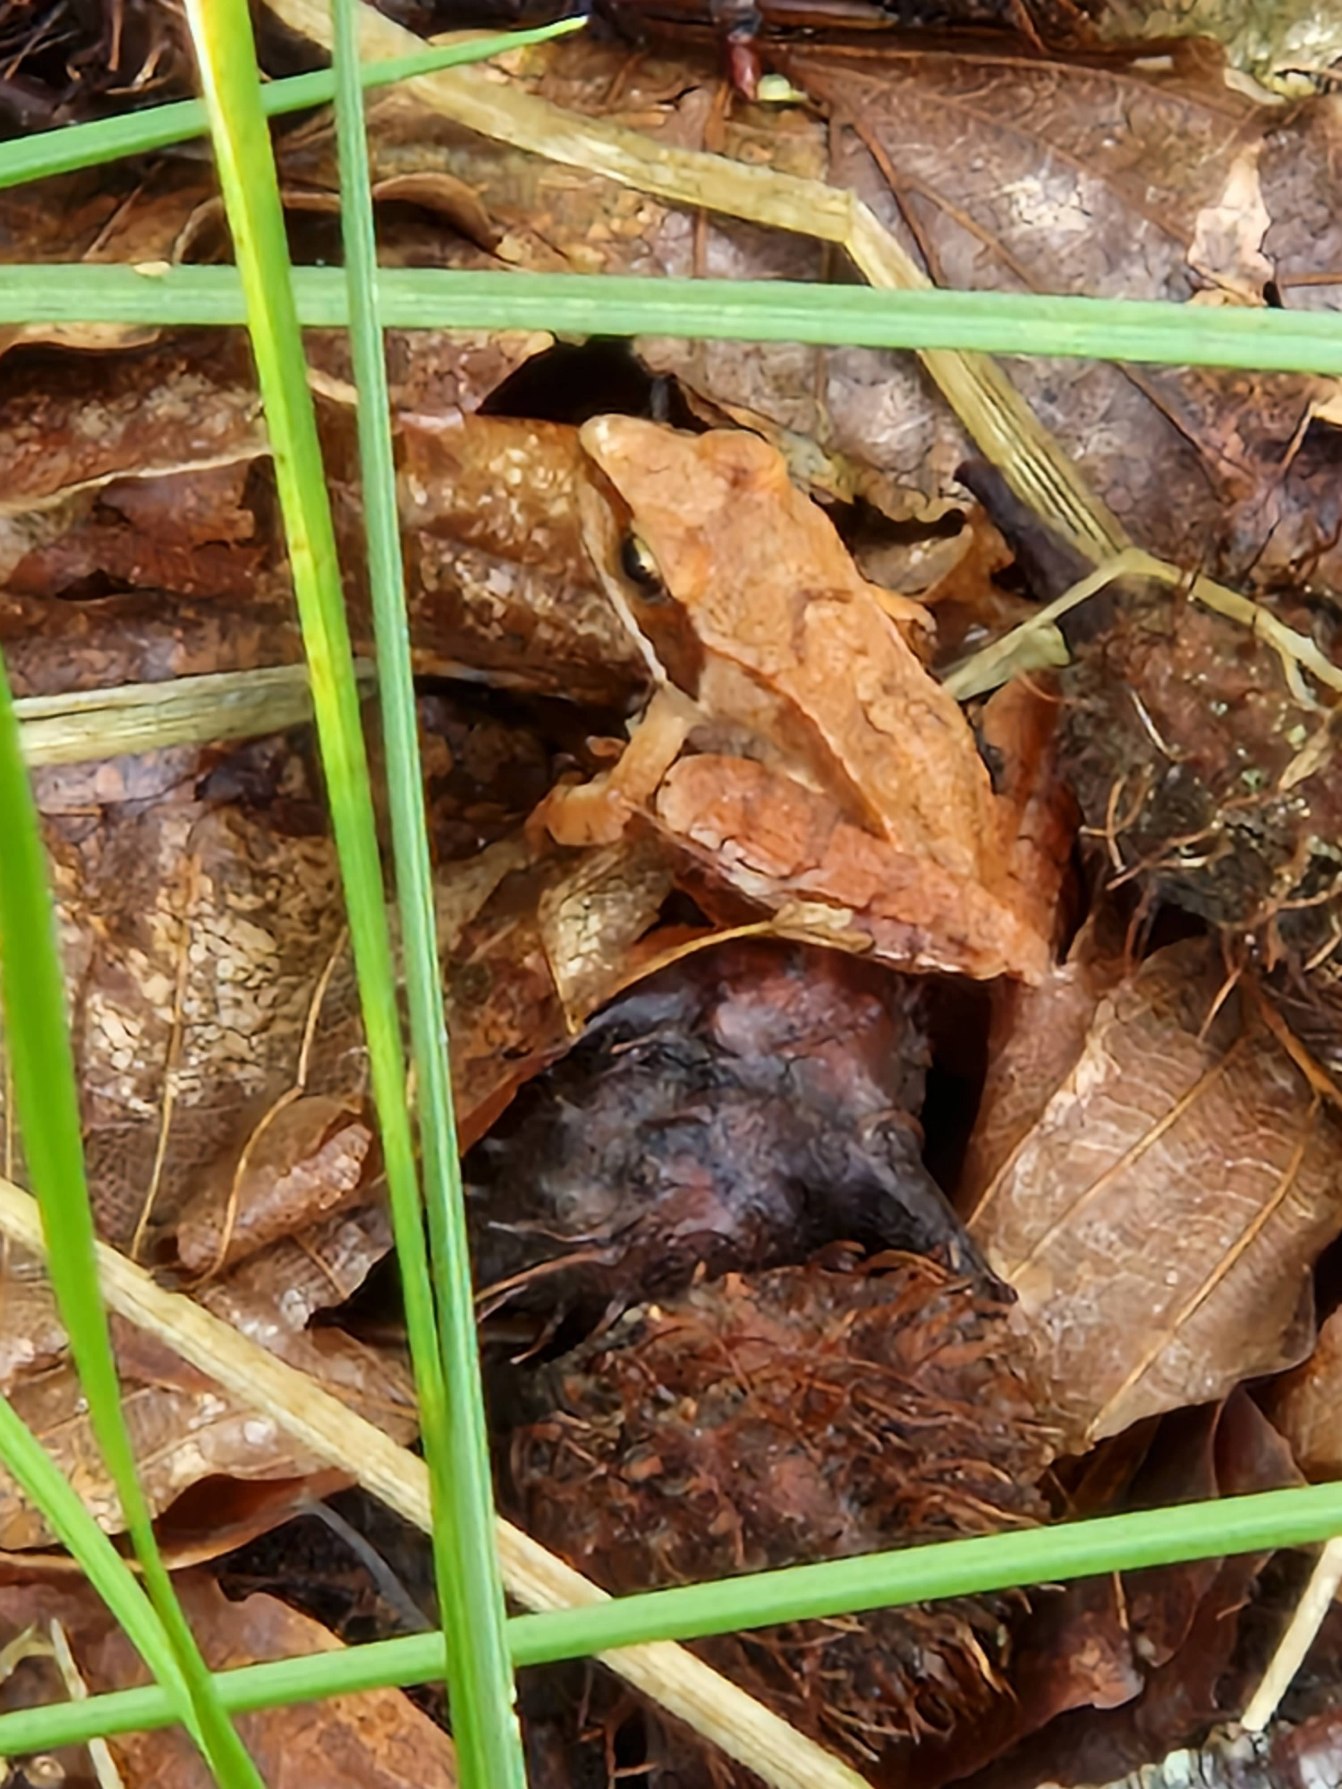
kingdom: Animalia
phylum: Chordata
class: Amphibia
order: Anura
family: Ranidae
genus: Rana
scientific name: Rana dalmatina
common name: Springfrø
